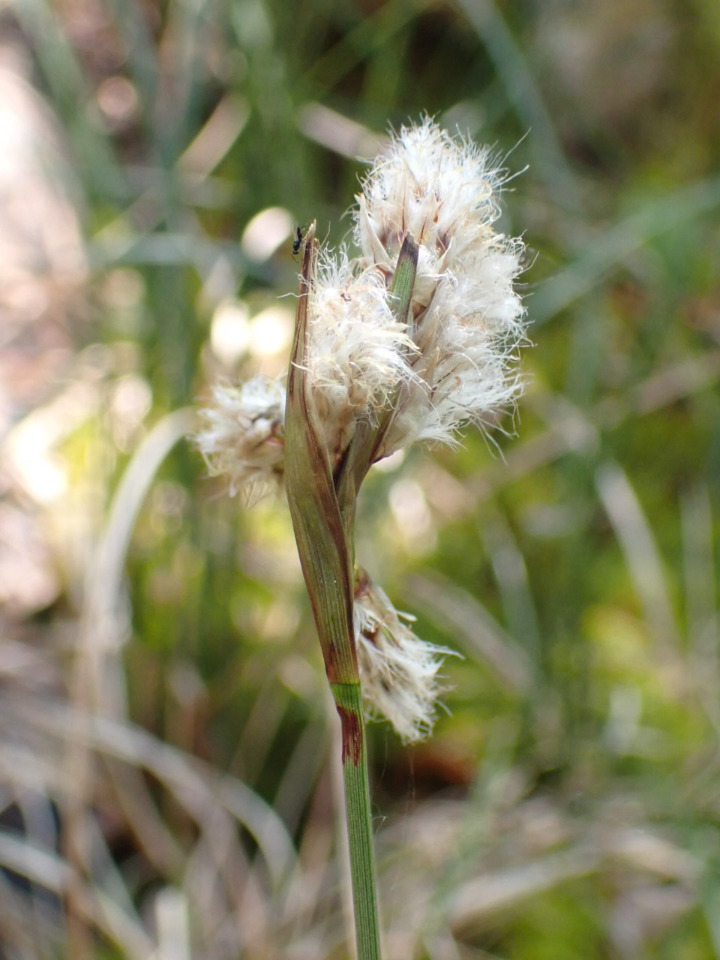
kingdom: Plantae
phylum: Tracheophyta
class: Liliopsida
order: Poales
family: Cyperaceae
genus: Eriophorum
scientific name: Eriophorum angustifolium
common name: Smalbladet kæruld
